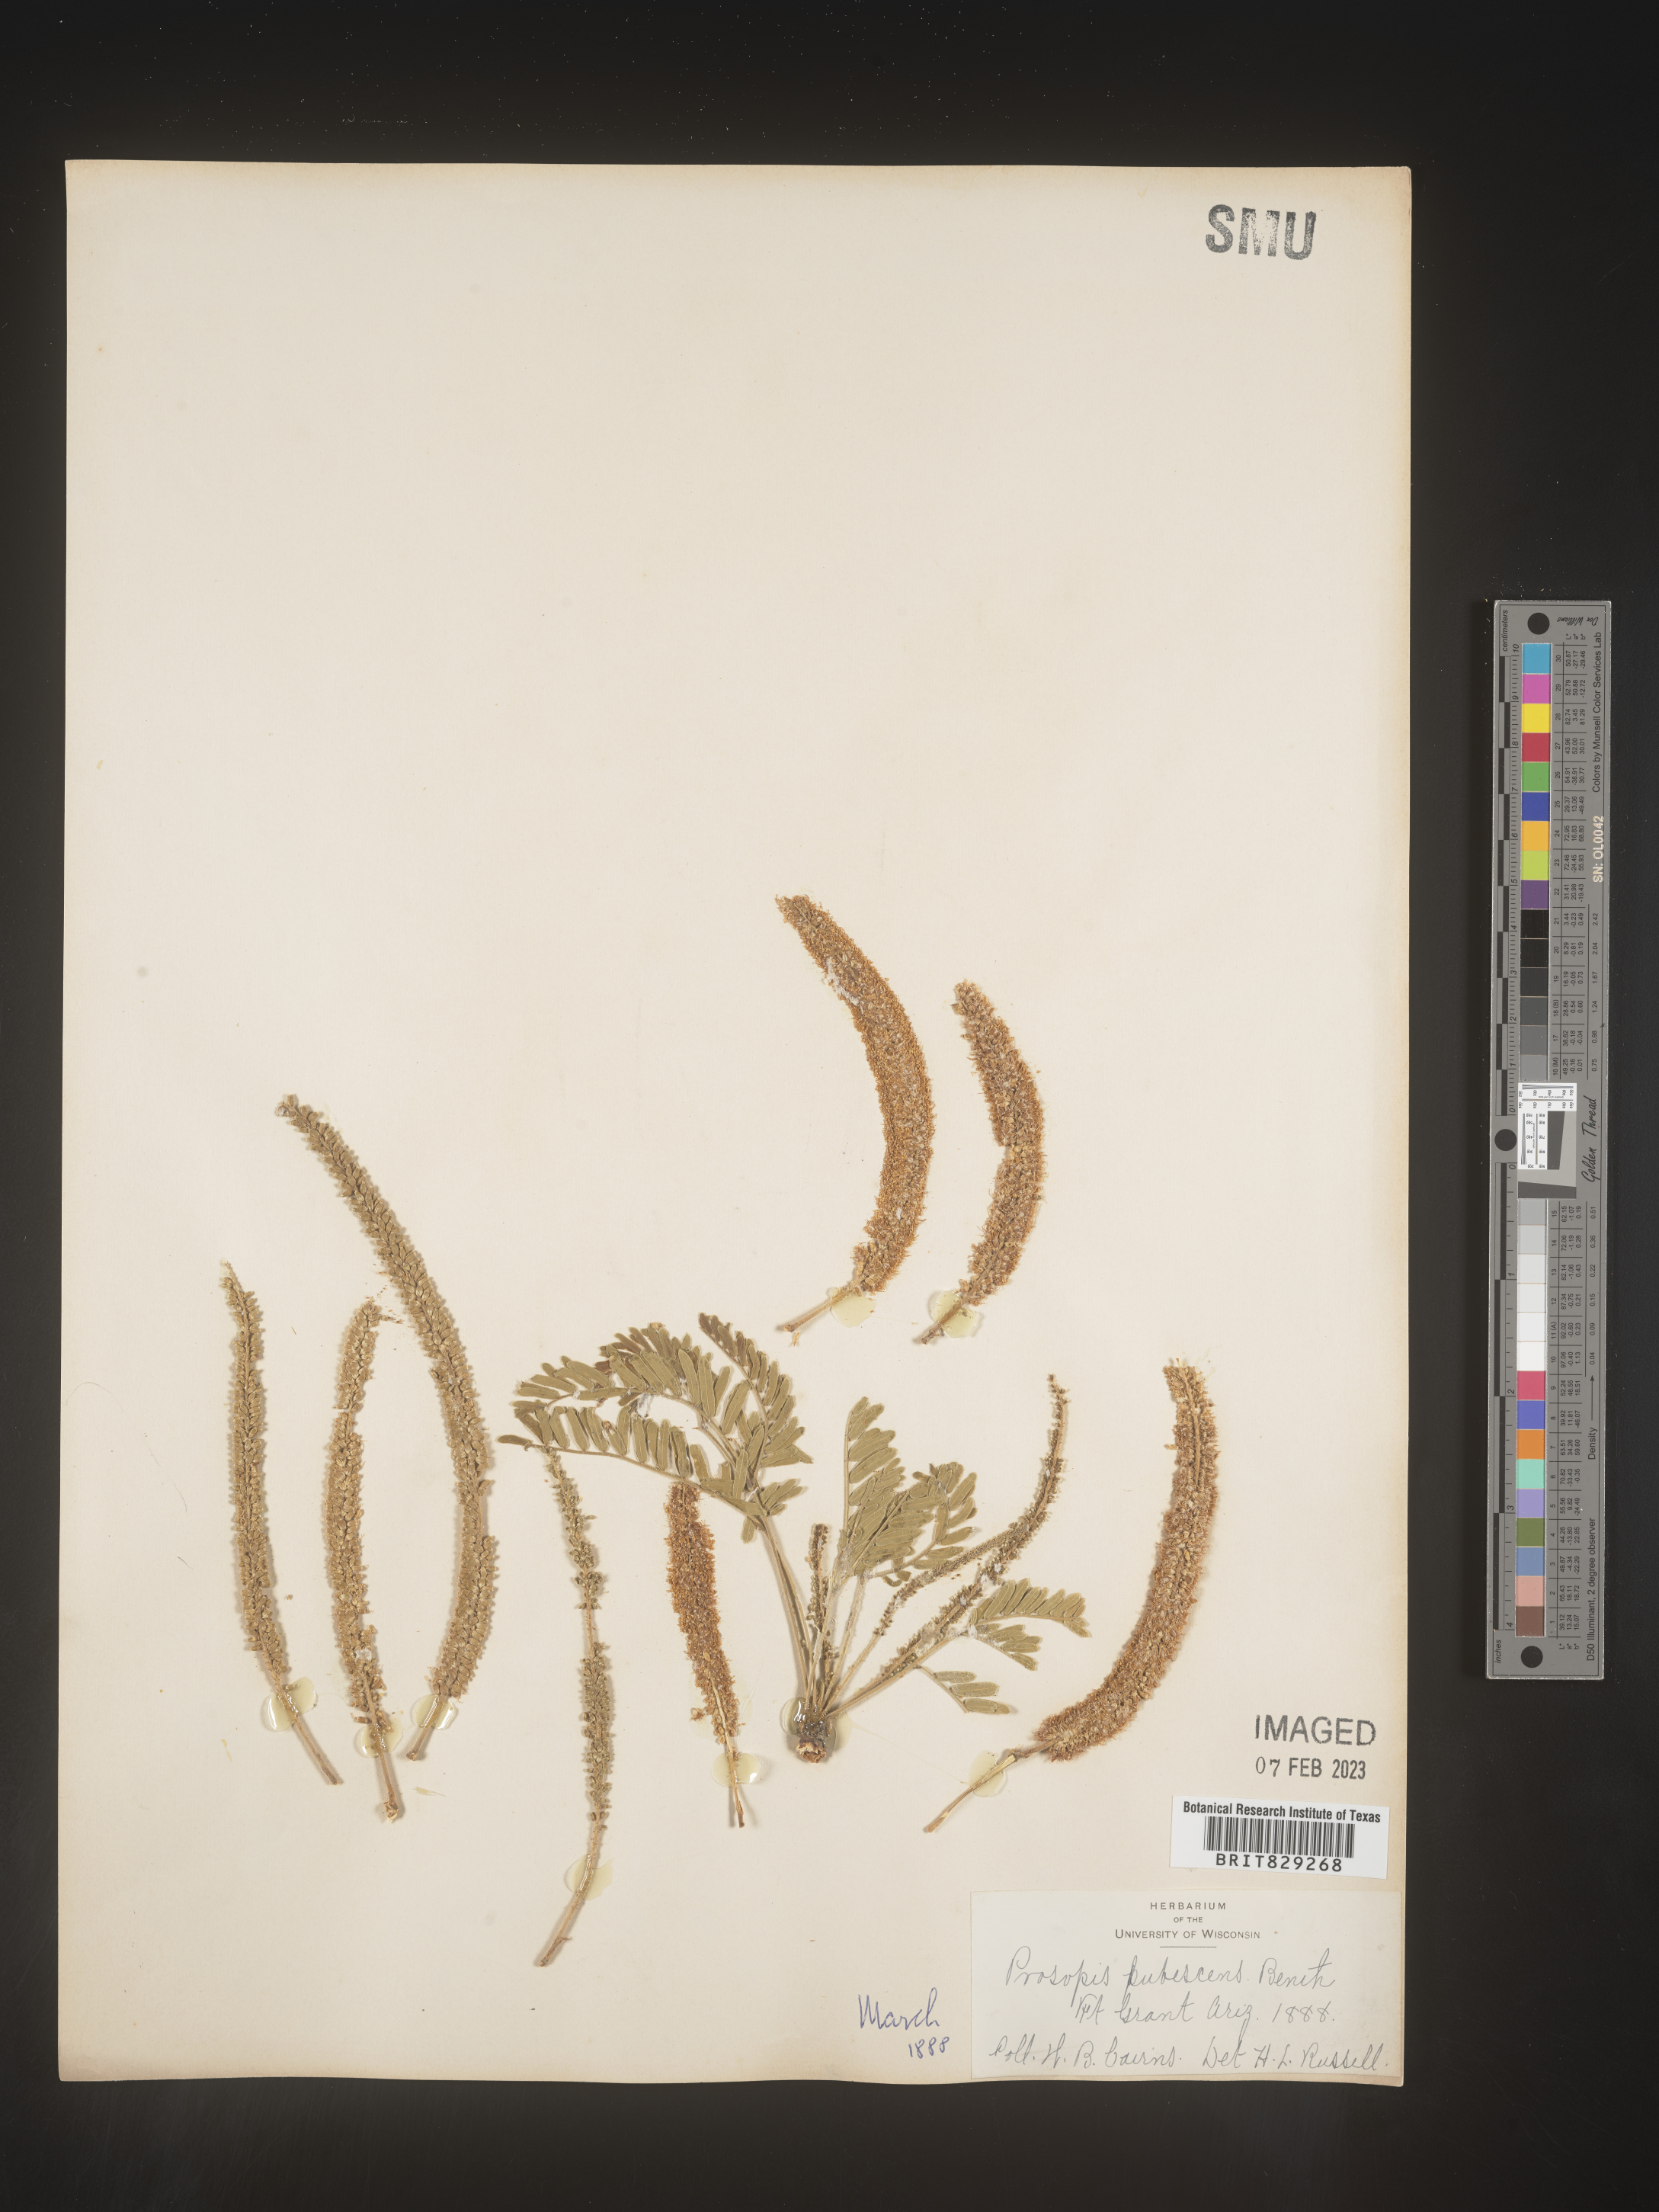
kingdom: Plantae
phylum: Tracheophyta
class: Magnoliopsida
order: Fabales
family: Fabaceae
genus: Prosopis
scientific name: Prosopis
